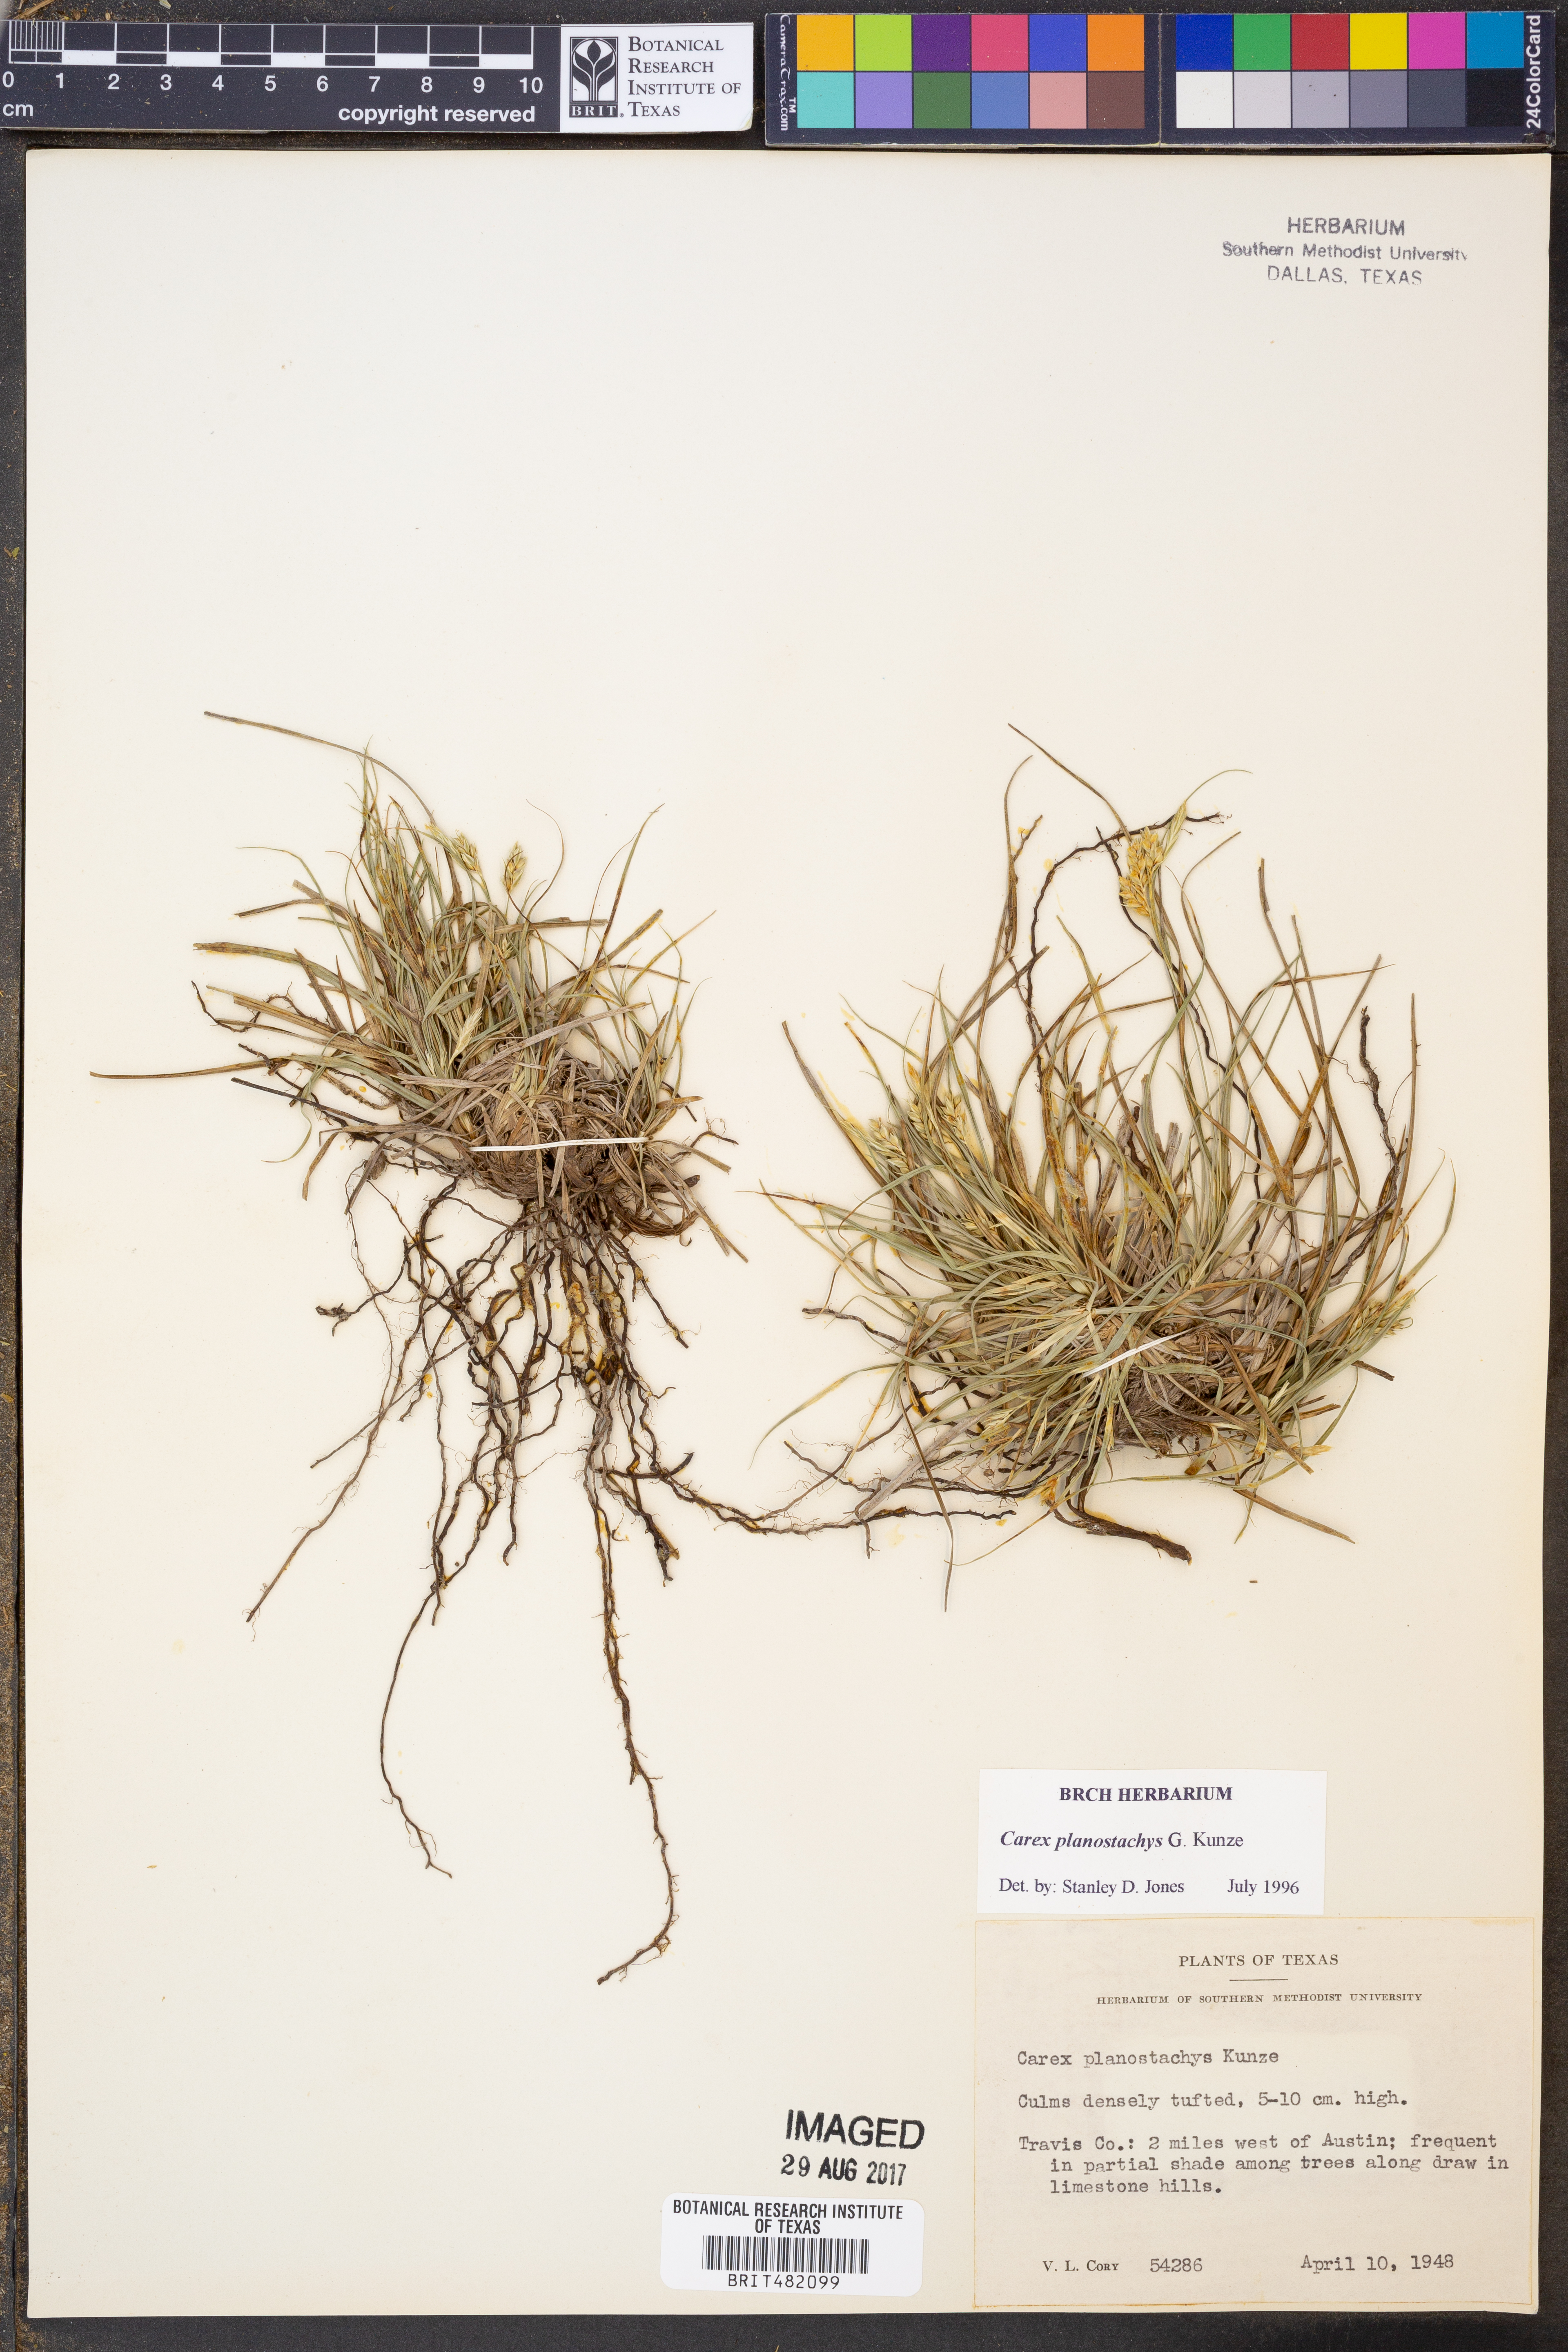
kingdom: Plantae
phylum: Tracheophyta
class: Liliopsida
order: Poales
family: Cyperaceae
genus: Carex
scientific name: Carex planostachys
